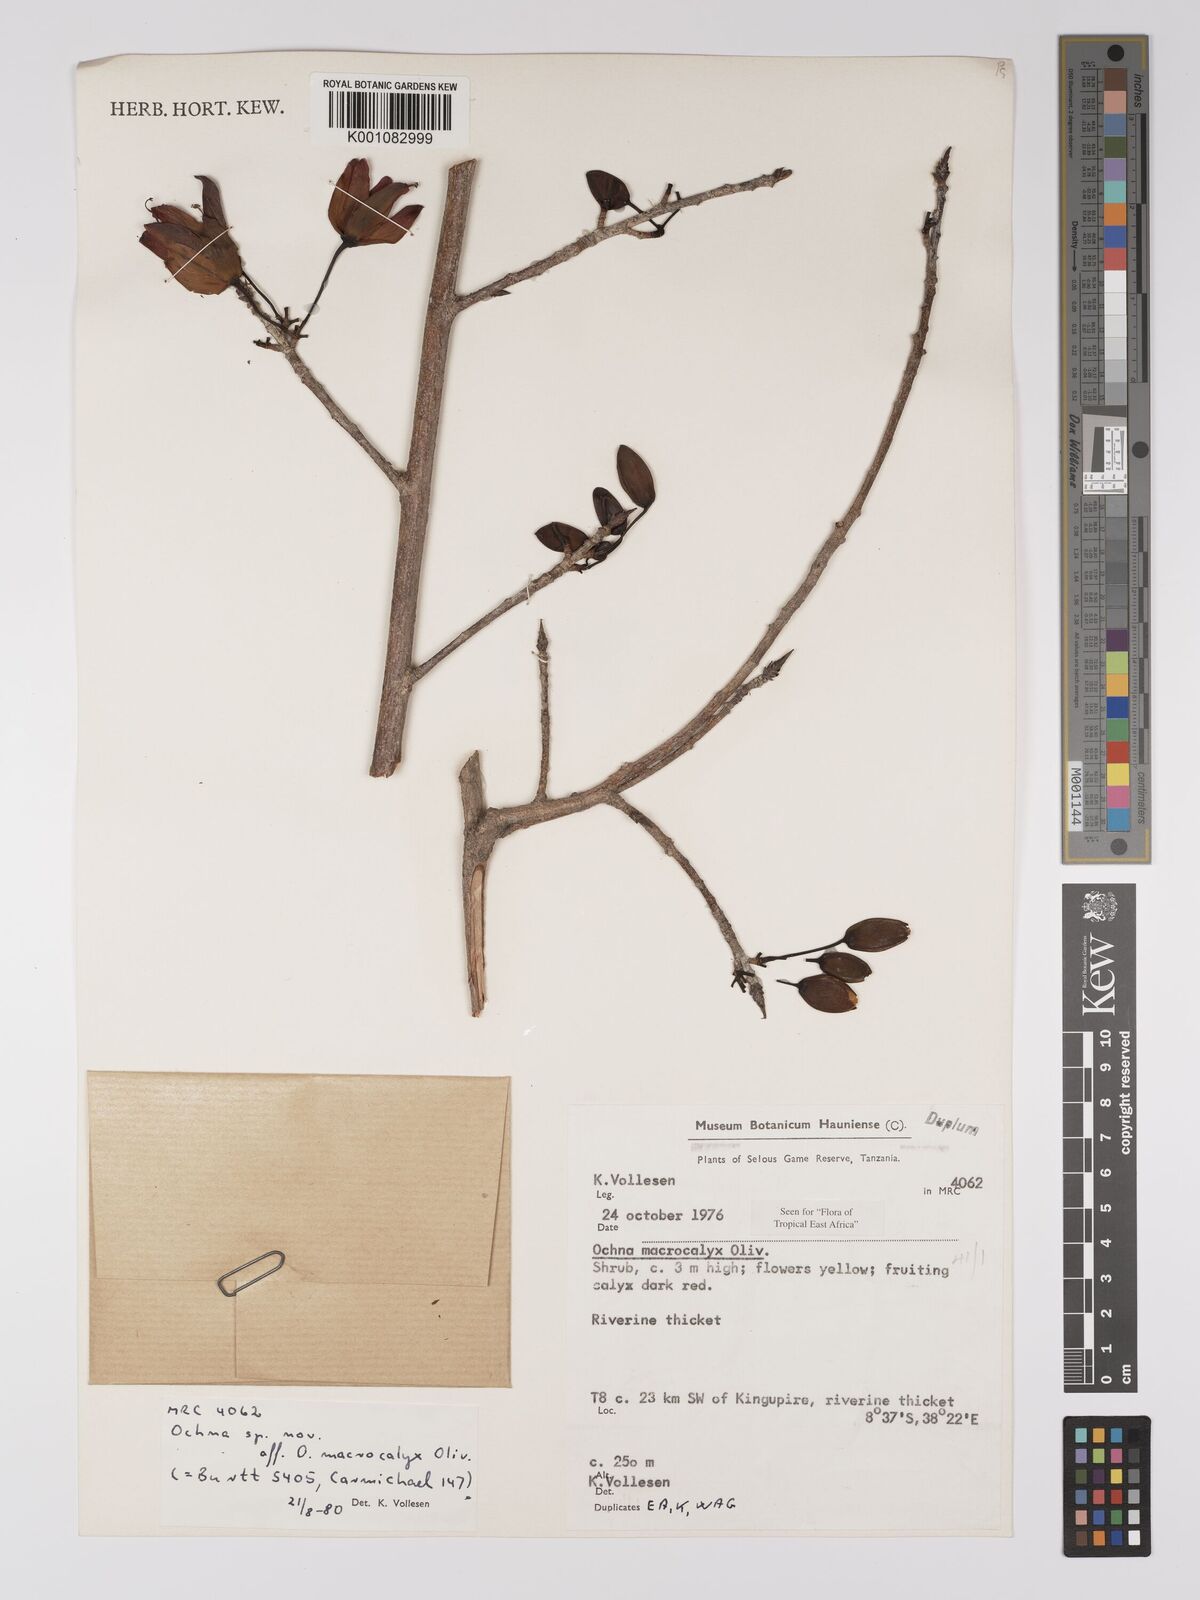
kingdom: Plantae
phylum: Tracheophyta
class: Magnoliopsida
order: Malpighiales
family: Ochnaceae
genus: Ochna
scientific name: Ochna macrocalyx
